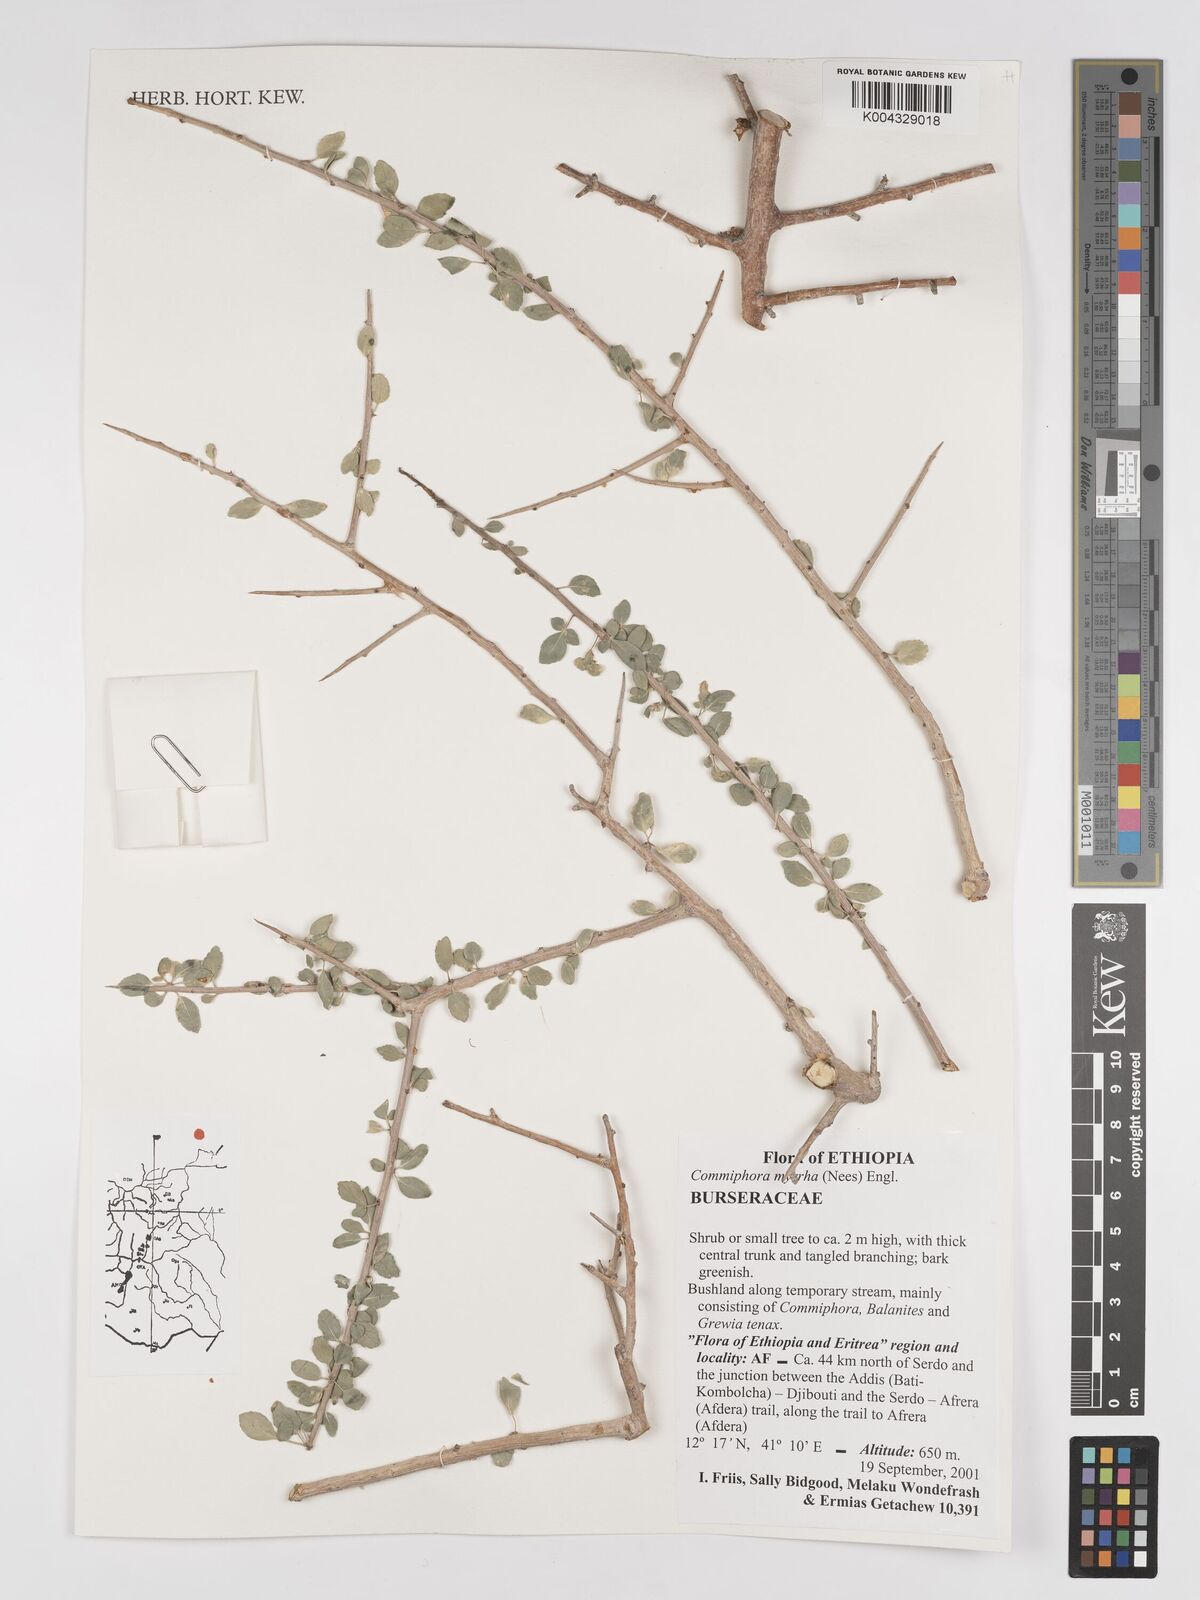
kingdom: Plantae
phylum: Tracheophyta
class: Magnoliopsida
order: Sapindales
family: Burseraceae
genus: Commiphora
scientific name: Commiphora myrrha
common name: African myrrh
